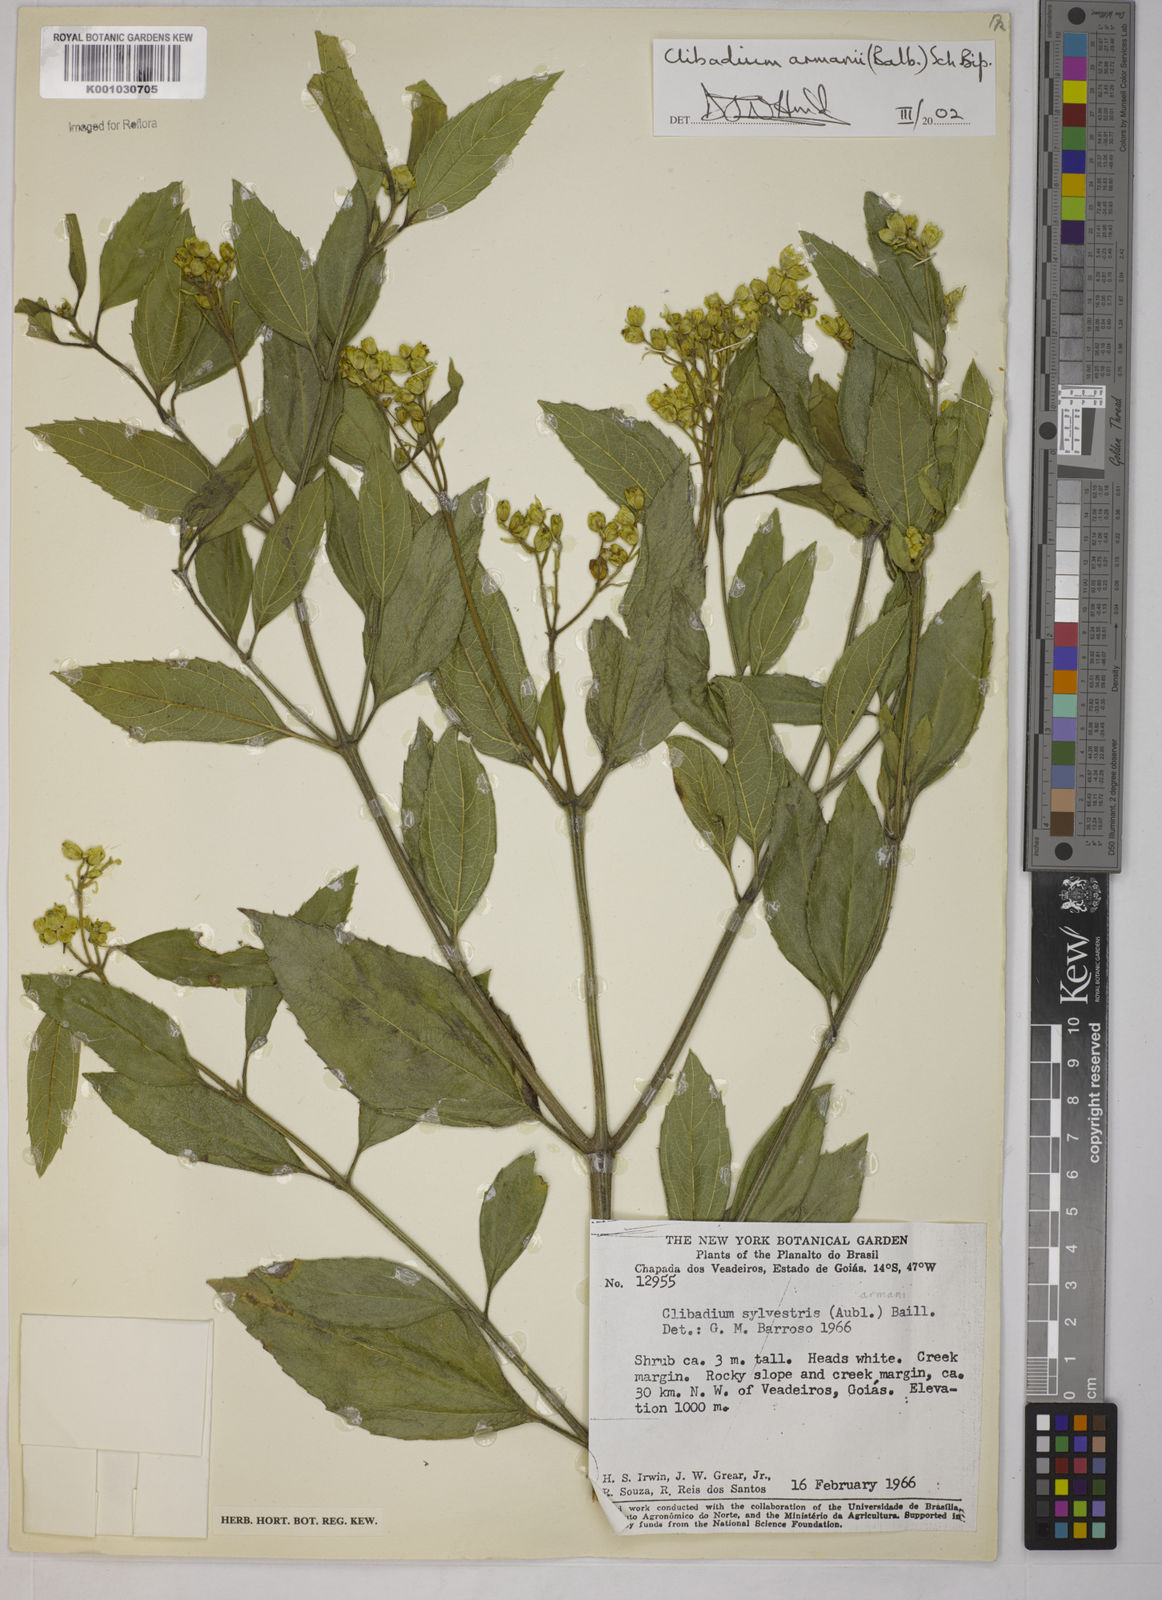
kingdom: Plantae
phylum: Tracheophyta
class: Magnoliopsida
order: Asterales
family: Asteraceae
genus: Clibadium
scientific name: Clibadium armanii
